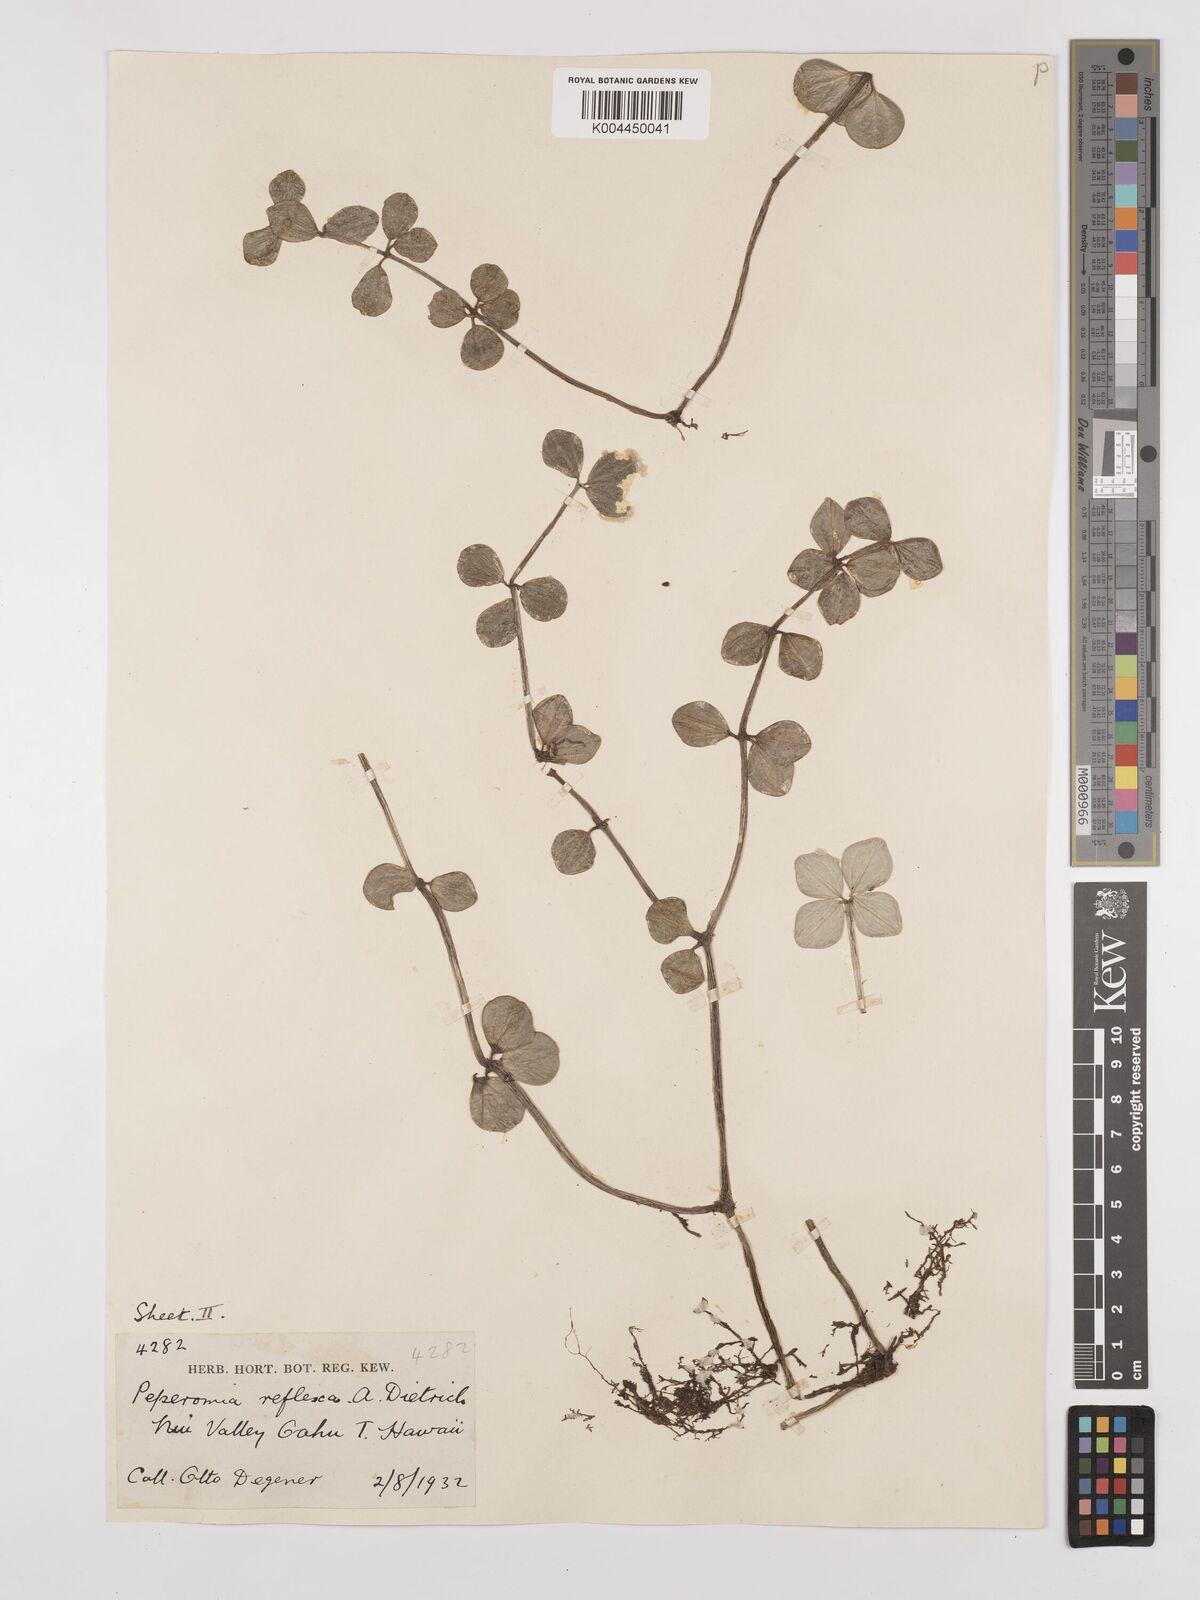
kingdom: Plantae
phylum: Tracheophyta
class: Magnoliopsida
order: Piperales
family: Piperaceae
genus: Peperomia
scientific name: Peperomia tetraphylla
